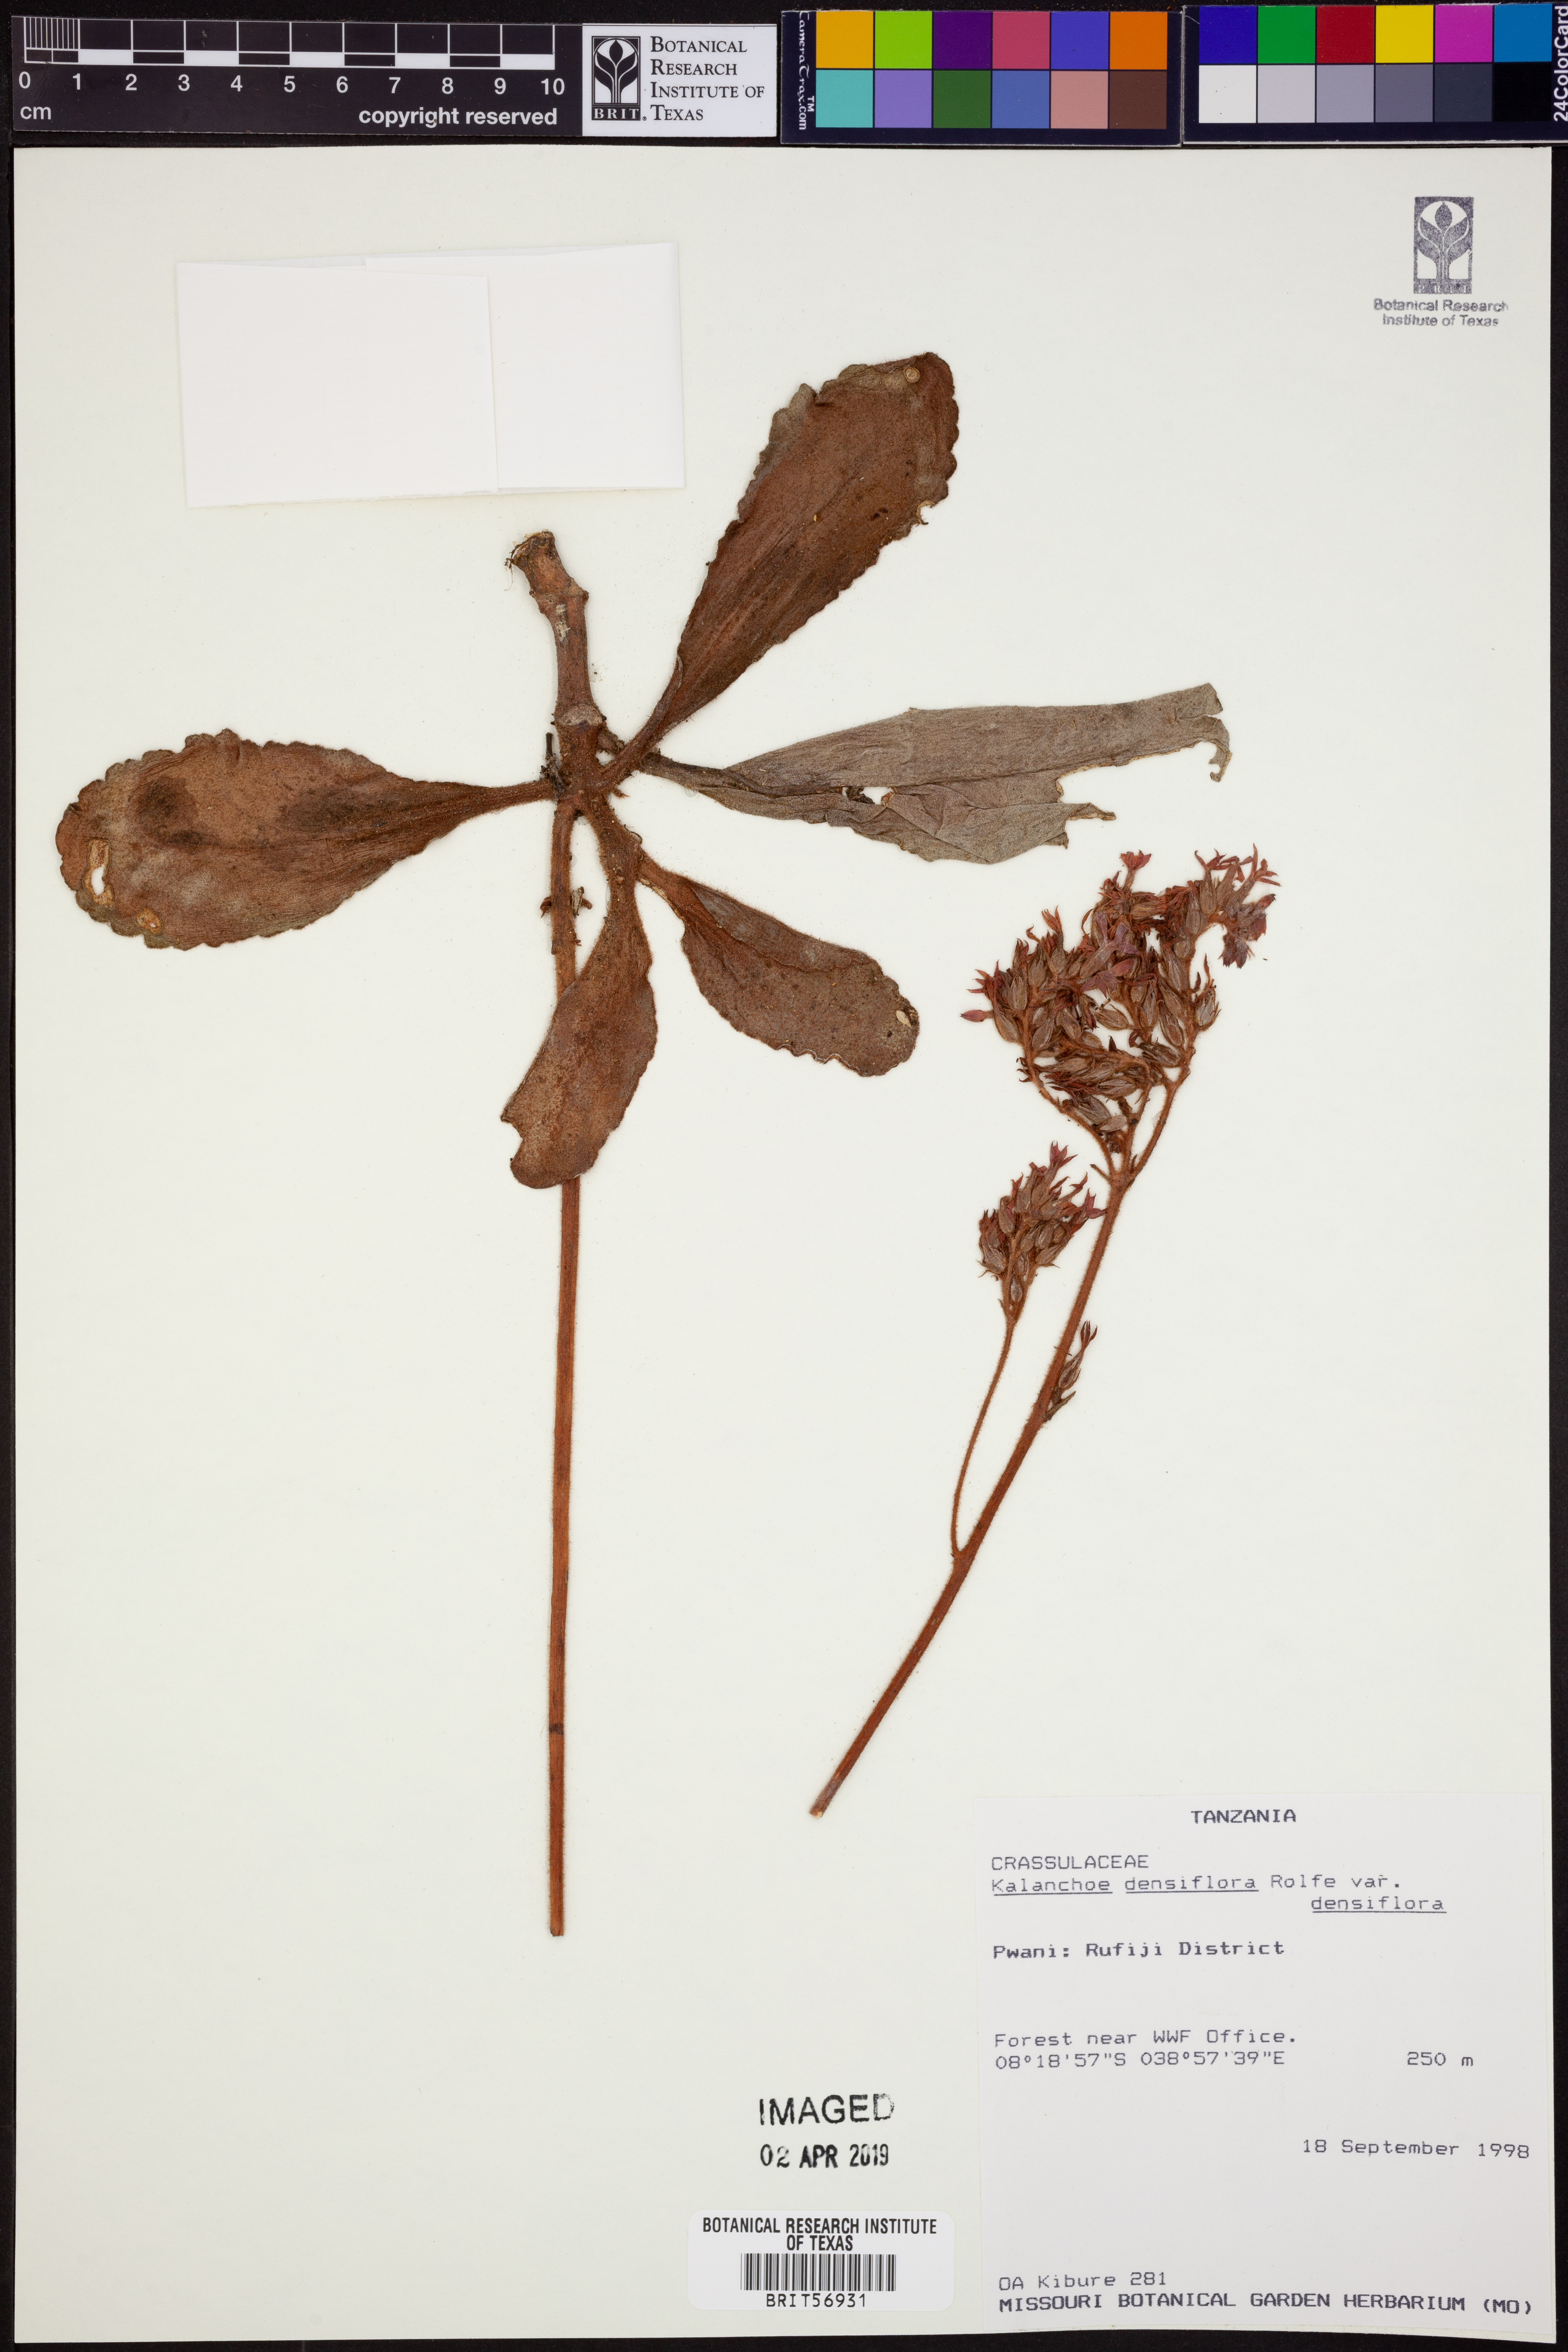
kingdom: Plantae
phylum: Tracheophyta
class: Magnoliopsida
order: Saxifragales
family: Crassulaceae
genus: Kalanchoe
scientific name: Kalanchoe densiflora
